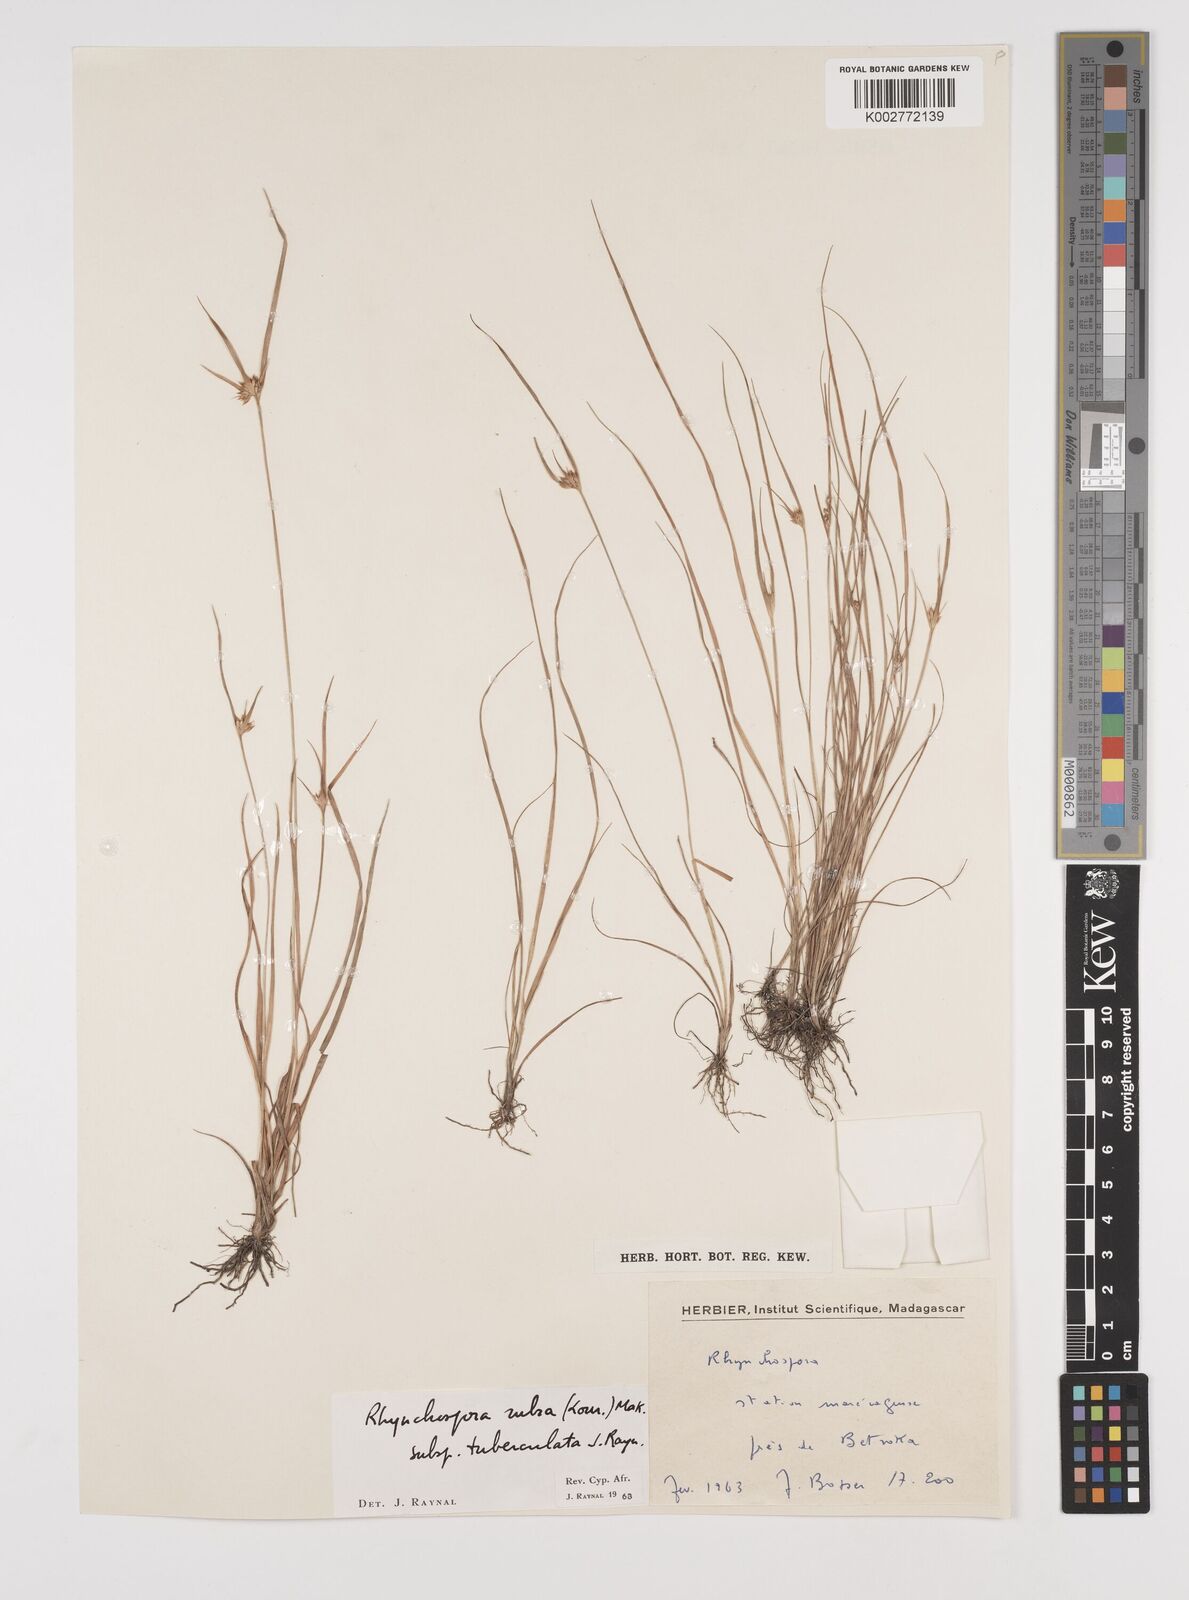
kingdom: Plantae
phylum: Tracheophyta
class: Liliopsida
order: Poales
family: Cyperaceae
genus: Rhynchospora
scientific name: Rhynchospora rubra
